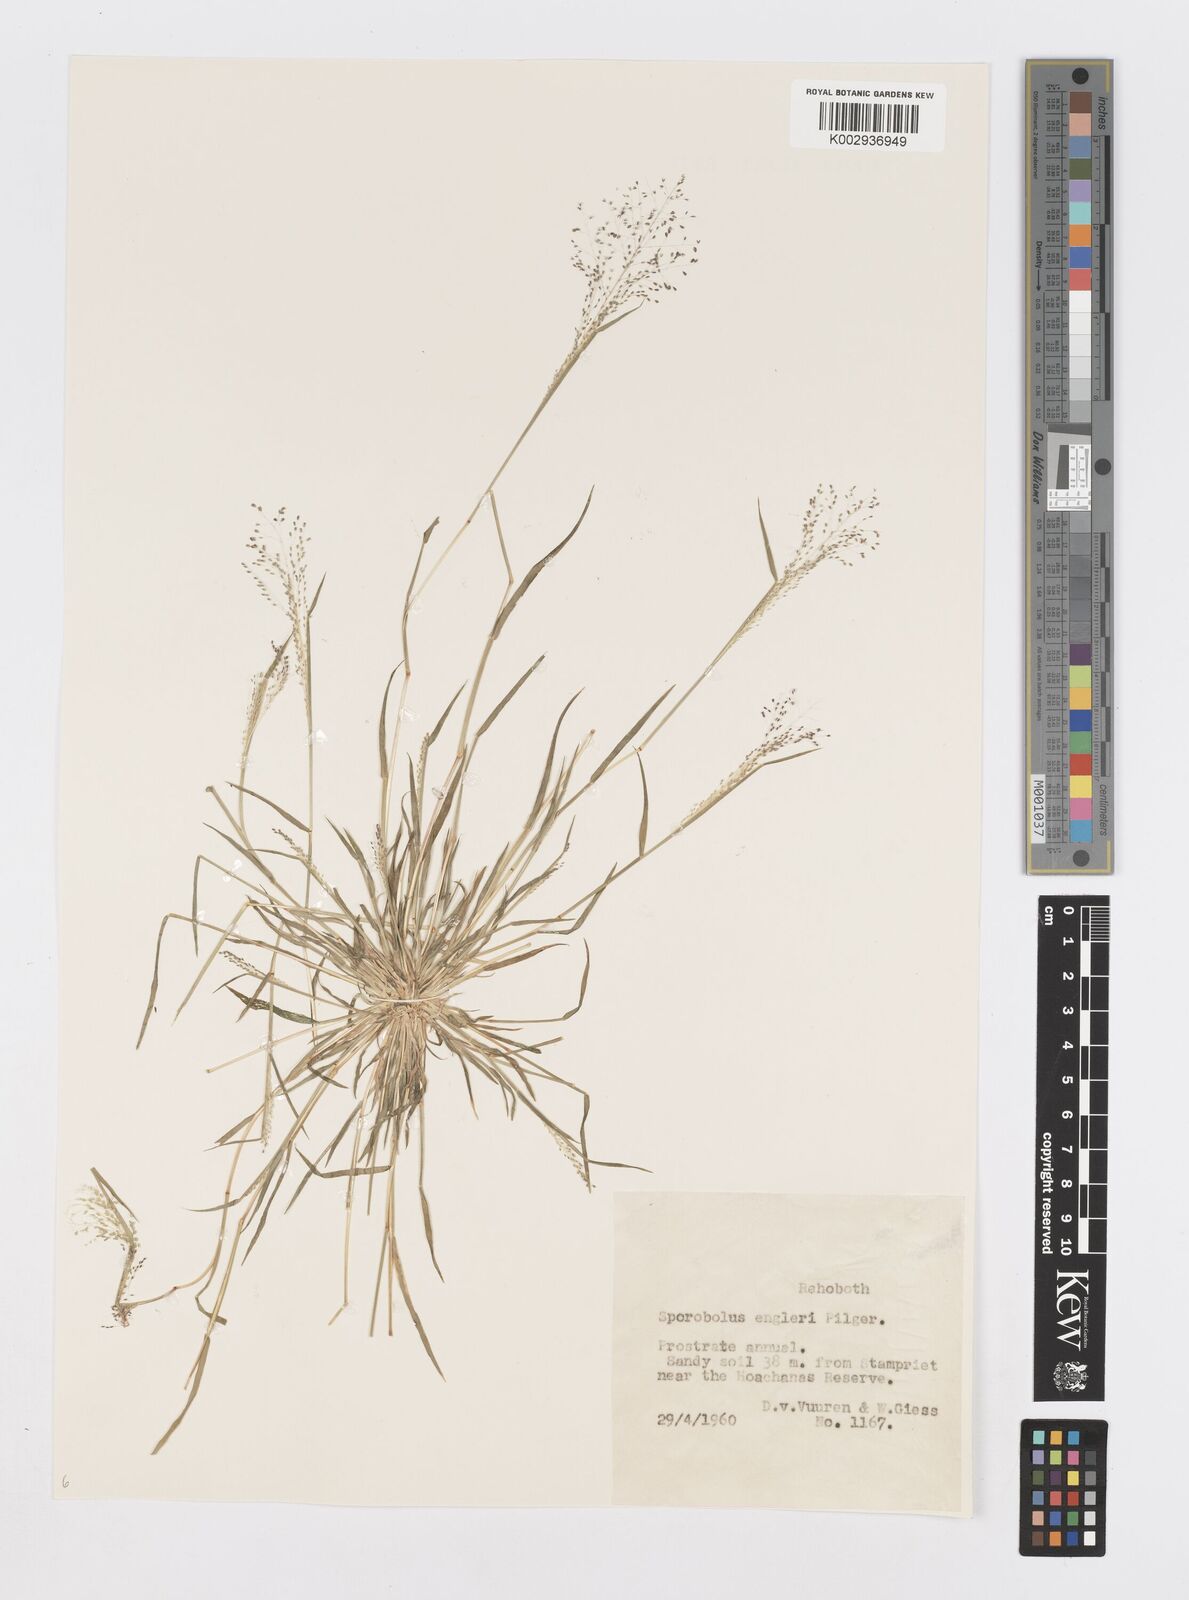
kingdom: Plantae
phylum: Tracheophyta
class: Liliopsida
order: Poales
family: Poaceae
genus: Sporobolus
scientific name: Sporobolus engleri
